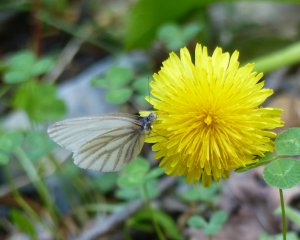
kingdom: Animalia
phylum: Arthropoda
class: Insecta
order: Lepidoptera
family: Pieridae
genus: Pieris
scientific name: Pieris oleracea
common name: Mustard White
